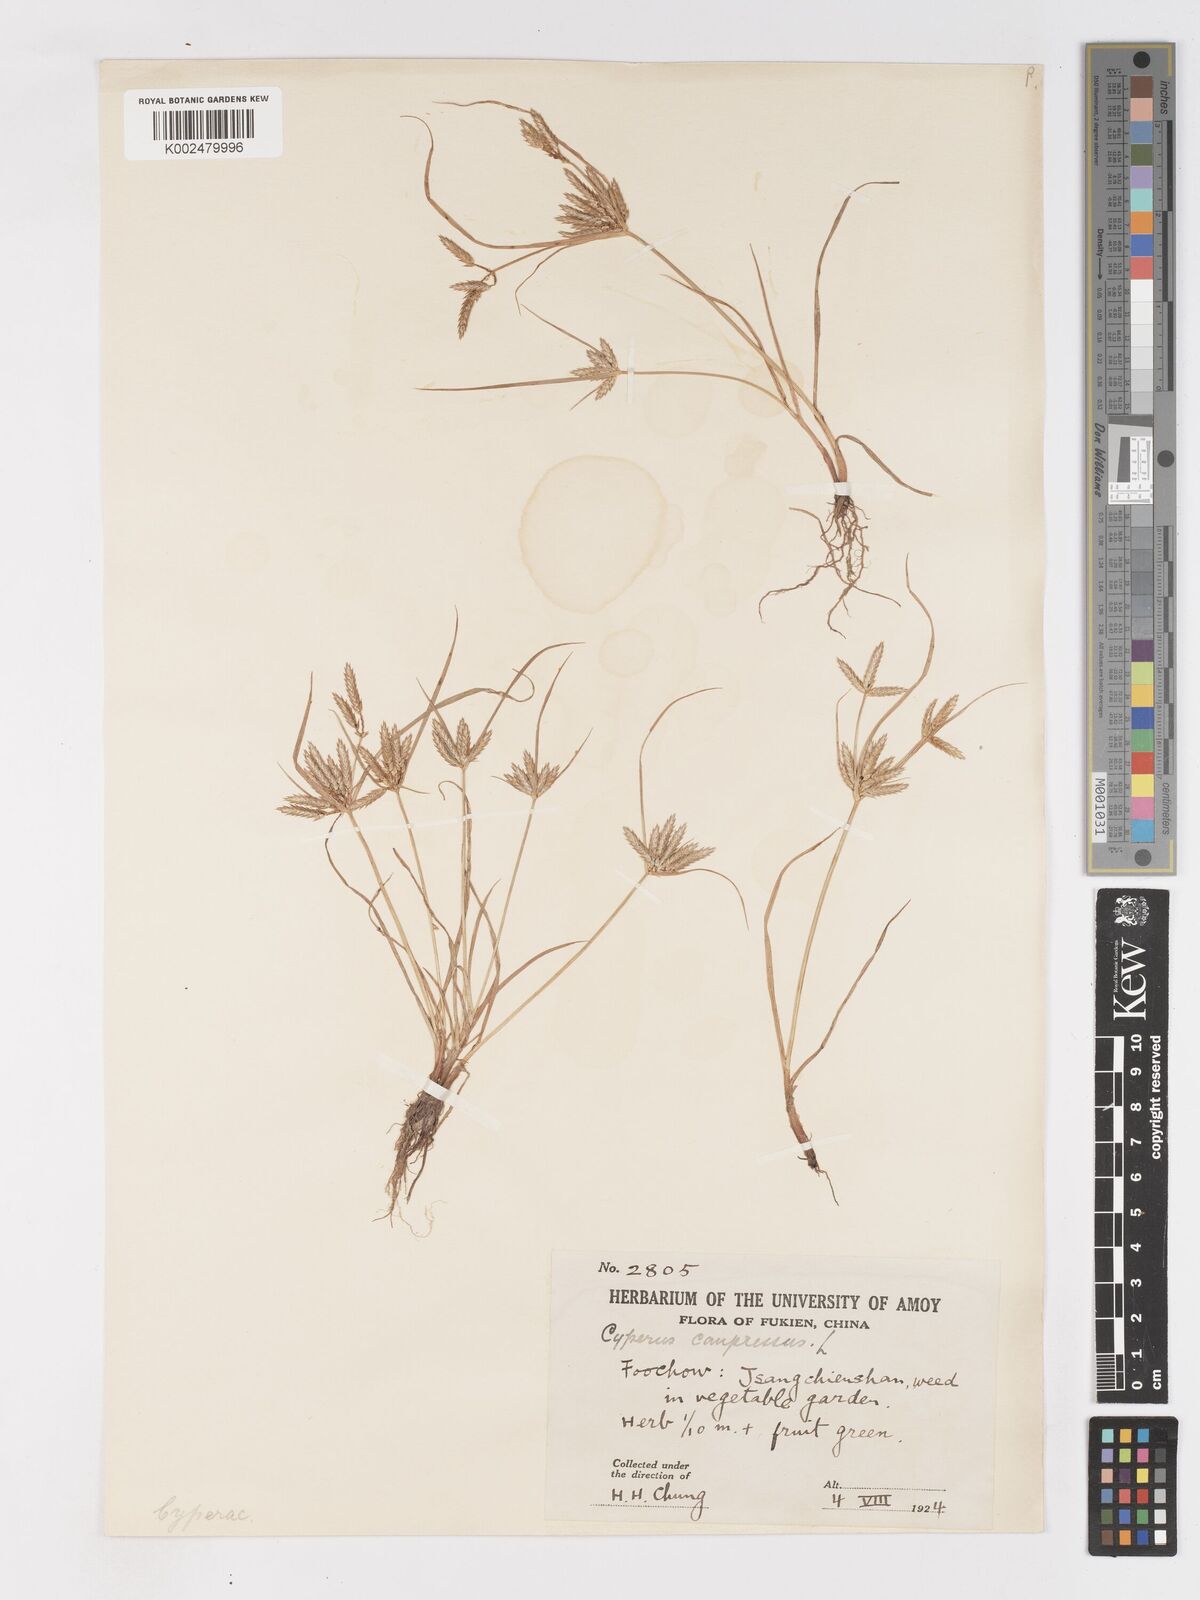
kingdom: Plantae
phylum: Tracheophyta
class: Liliopsida
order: Poales
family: Cyperaceae
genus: Cyperus
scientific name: Cyperus compressus
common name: Poorland flatsedge
